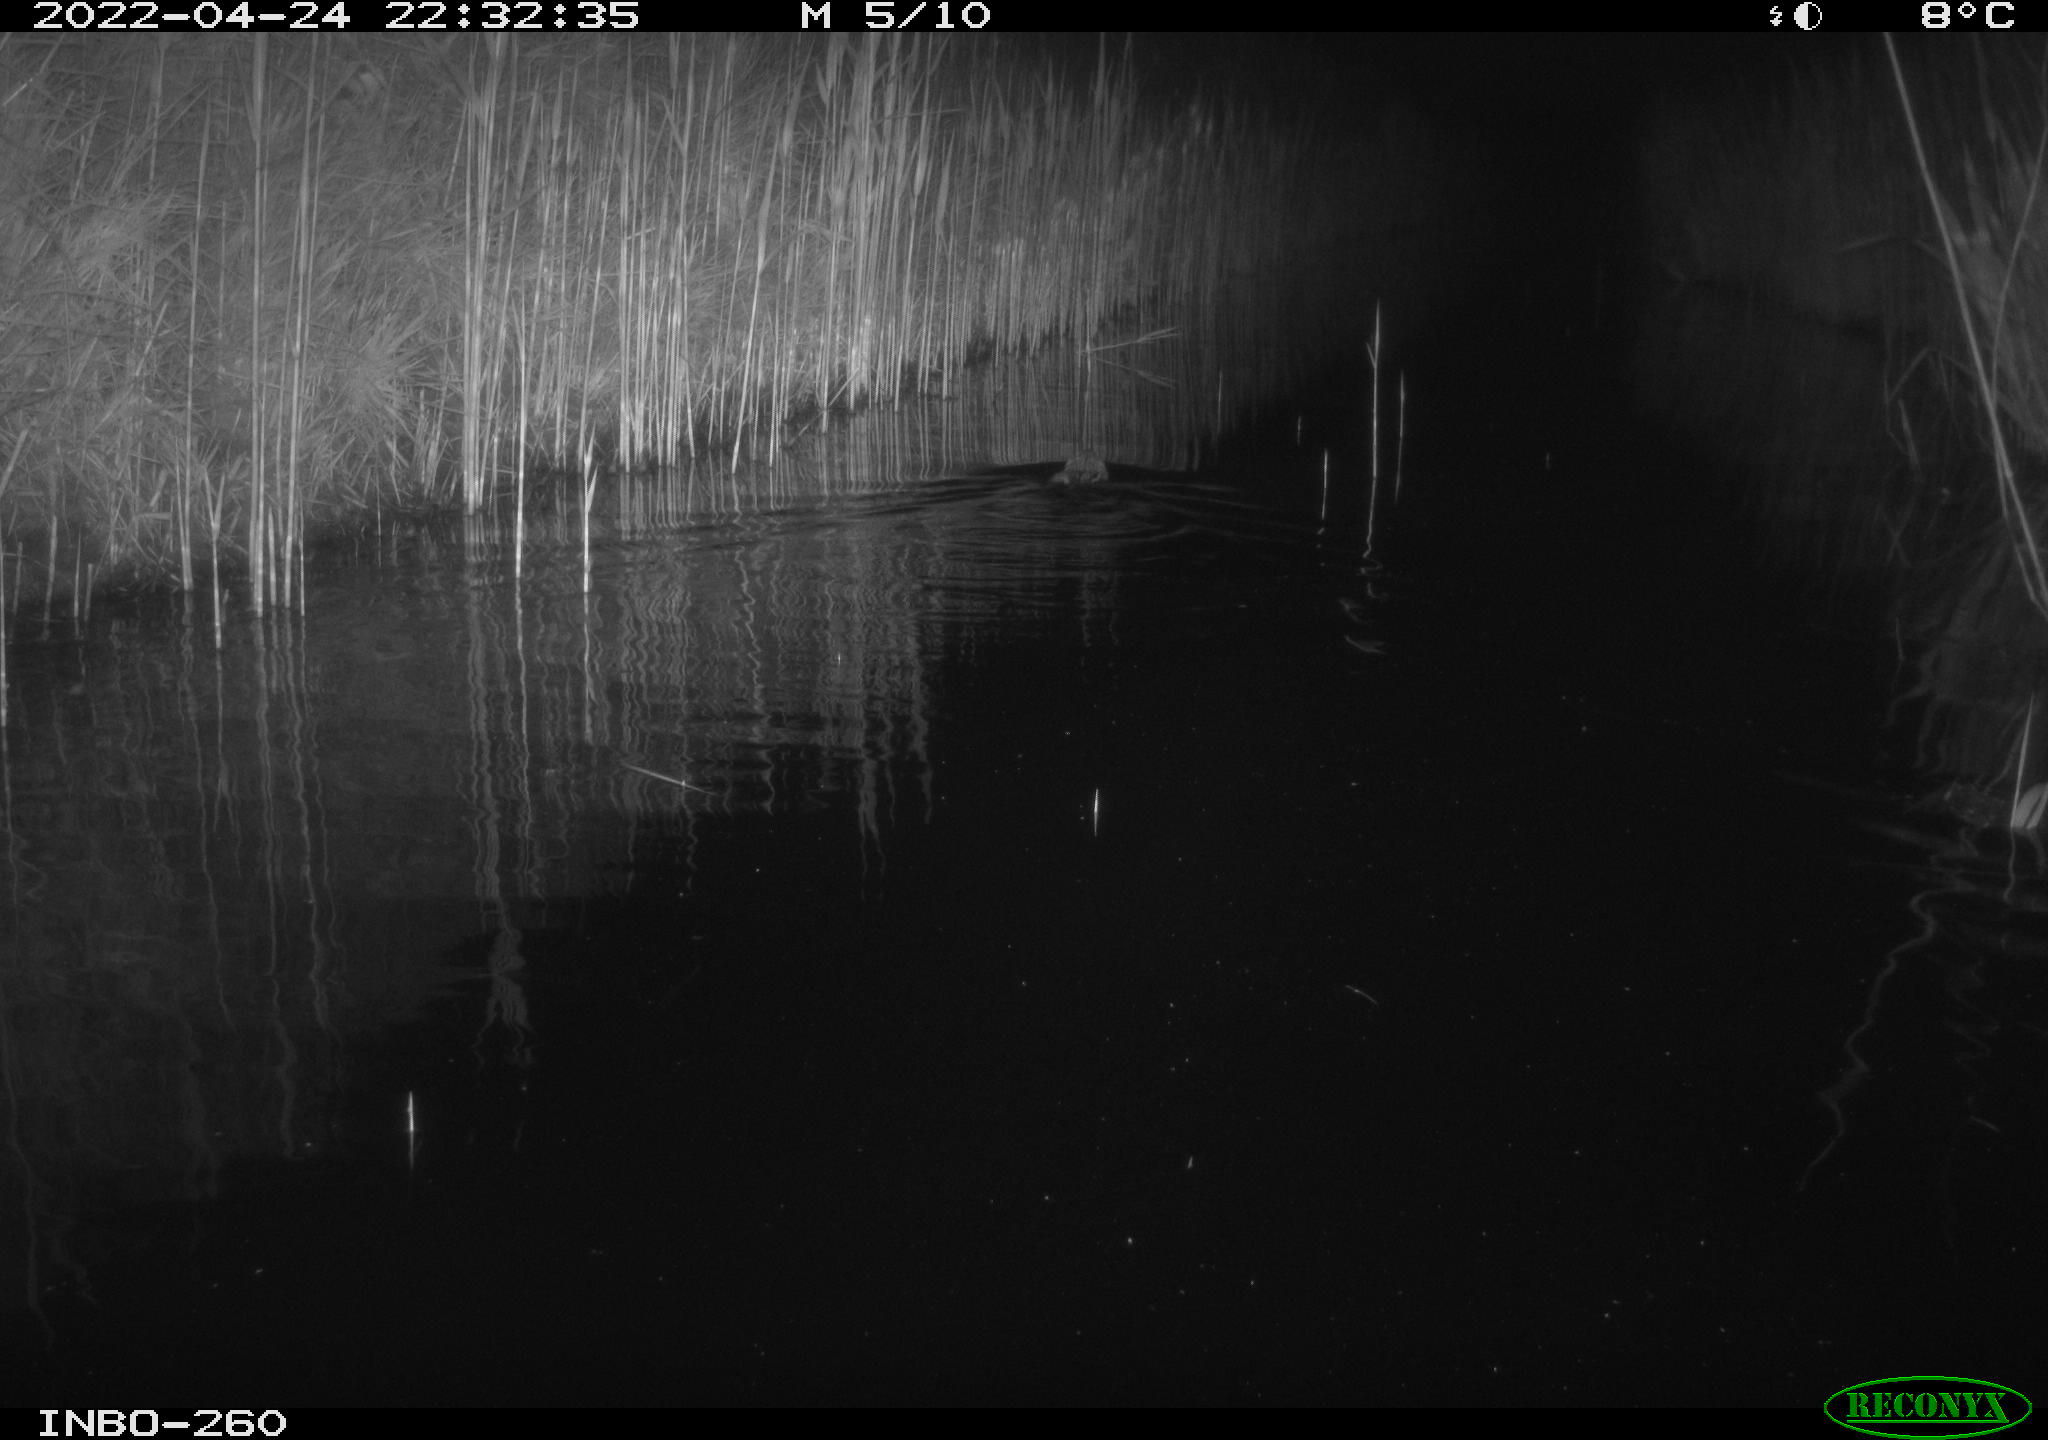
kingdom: Animalia
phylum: Chordata
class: Mammalia
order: Rodentia
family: Cricetidae
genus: Ondatra
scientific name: Ondatra zibethicus
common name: Muskrat
